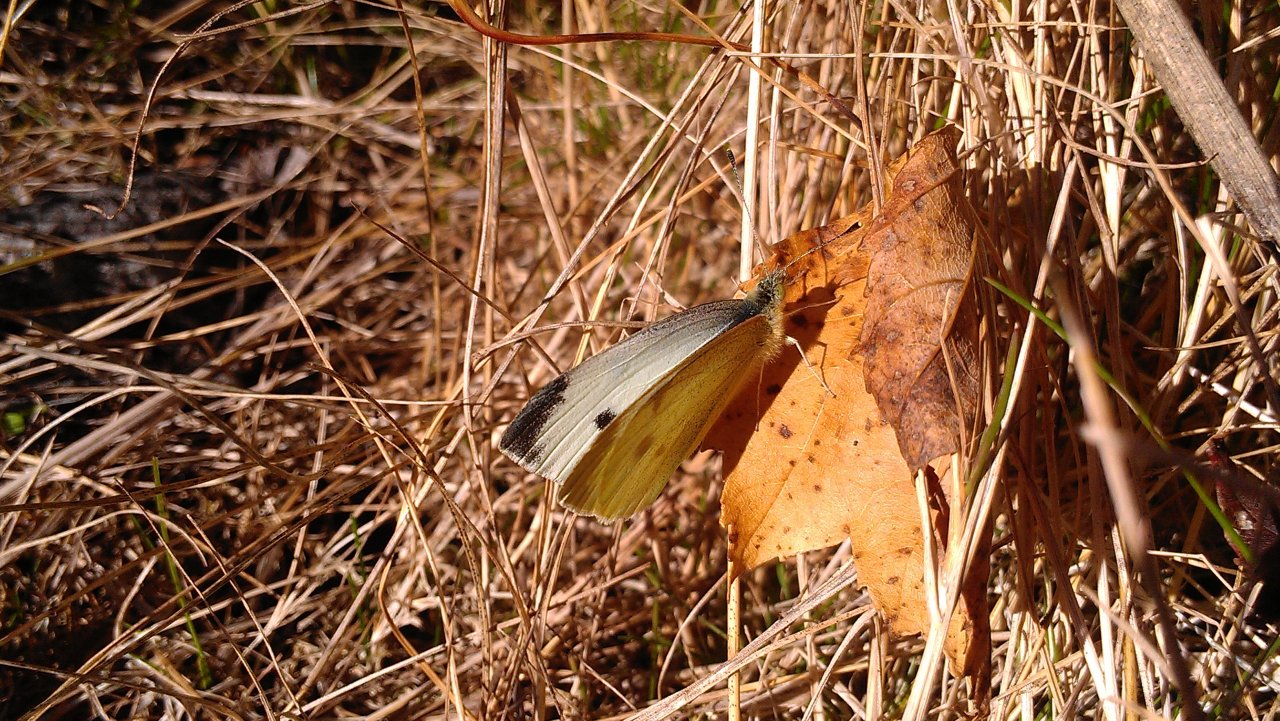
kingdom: Animalia
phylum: Arthropoda
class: Insecta
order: Lepidoptera
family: Pieridae
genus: Pieris
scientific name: Pieris rapae
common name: Cabbage White
